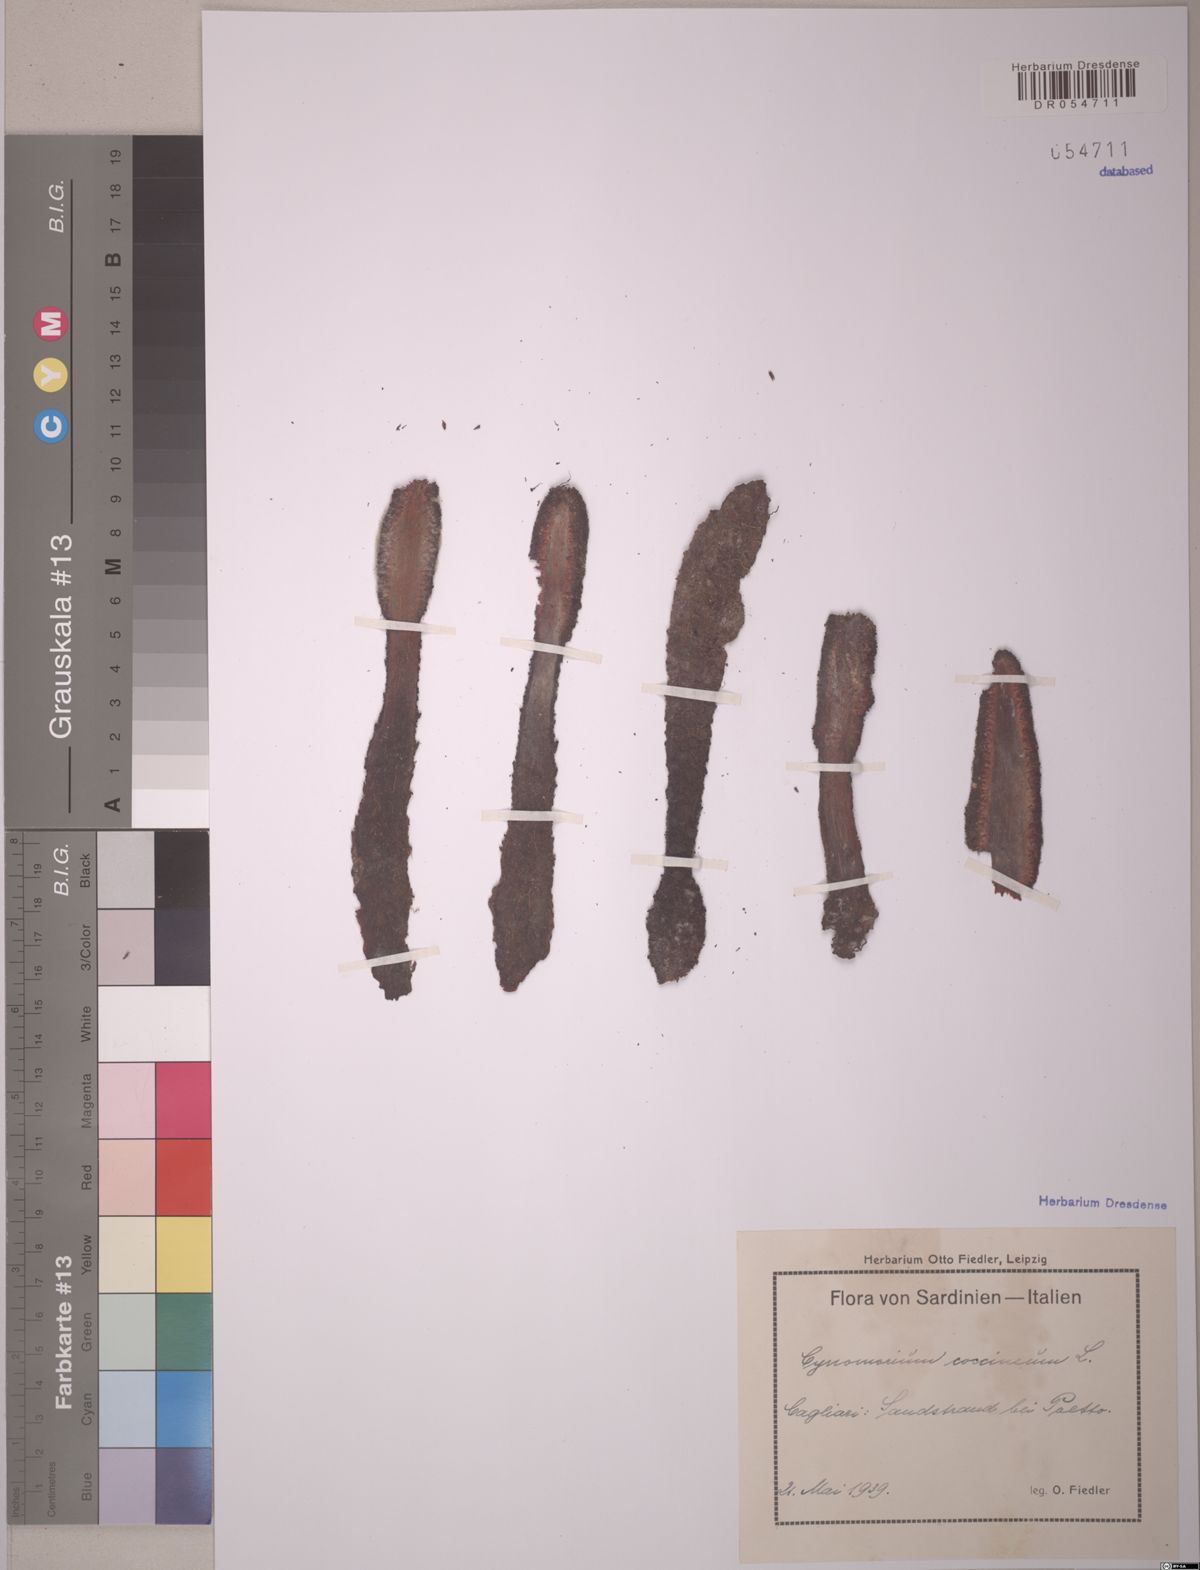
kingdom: Plantae
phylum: Tracheophyta
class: Magnoliopsida
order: Saxifragales
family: Cynomoriaceae
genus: Cynomorium
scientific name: Cynomorium coccineum
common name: Maltese-mushroom
